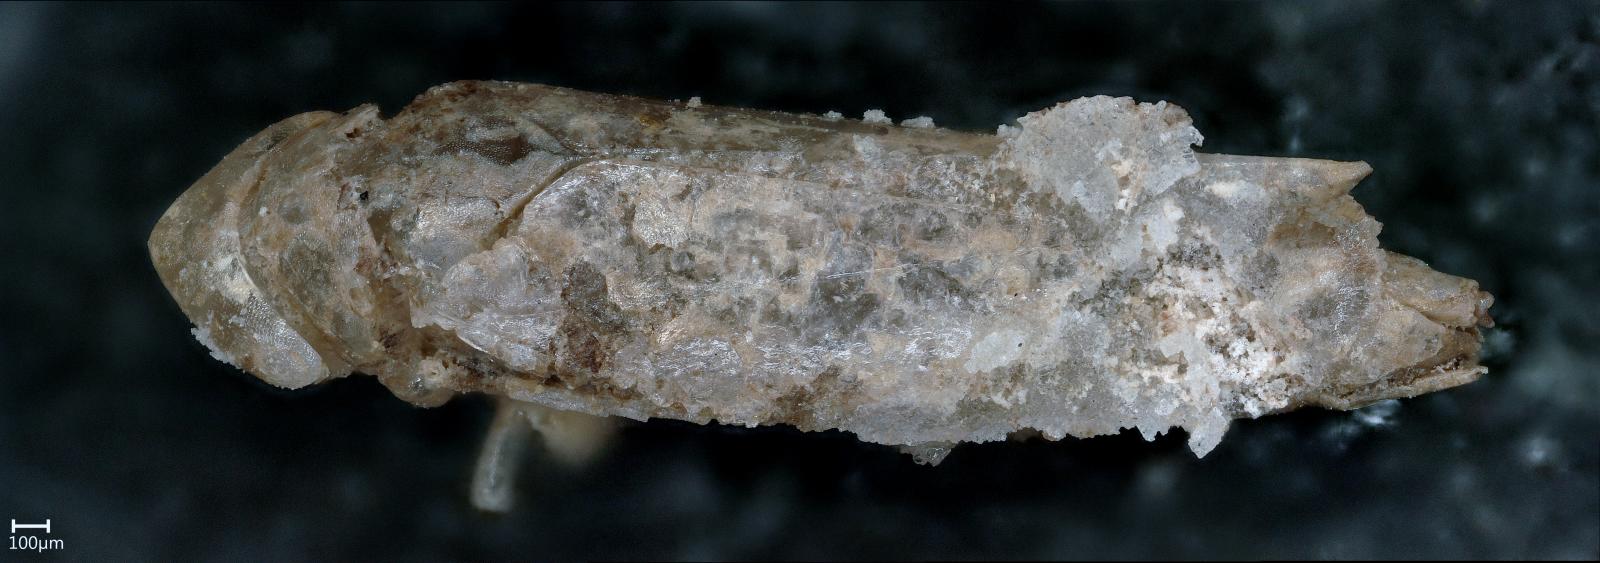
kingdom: Animalia
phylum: Arthropoda
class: Insecta
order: Hemiptera
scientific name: Hemiptera
